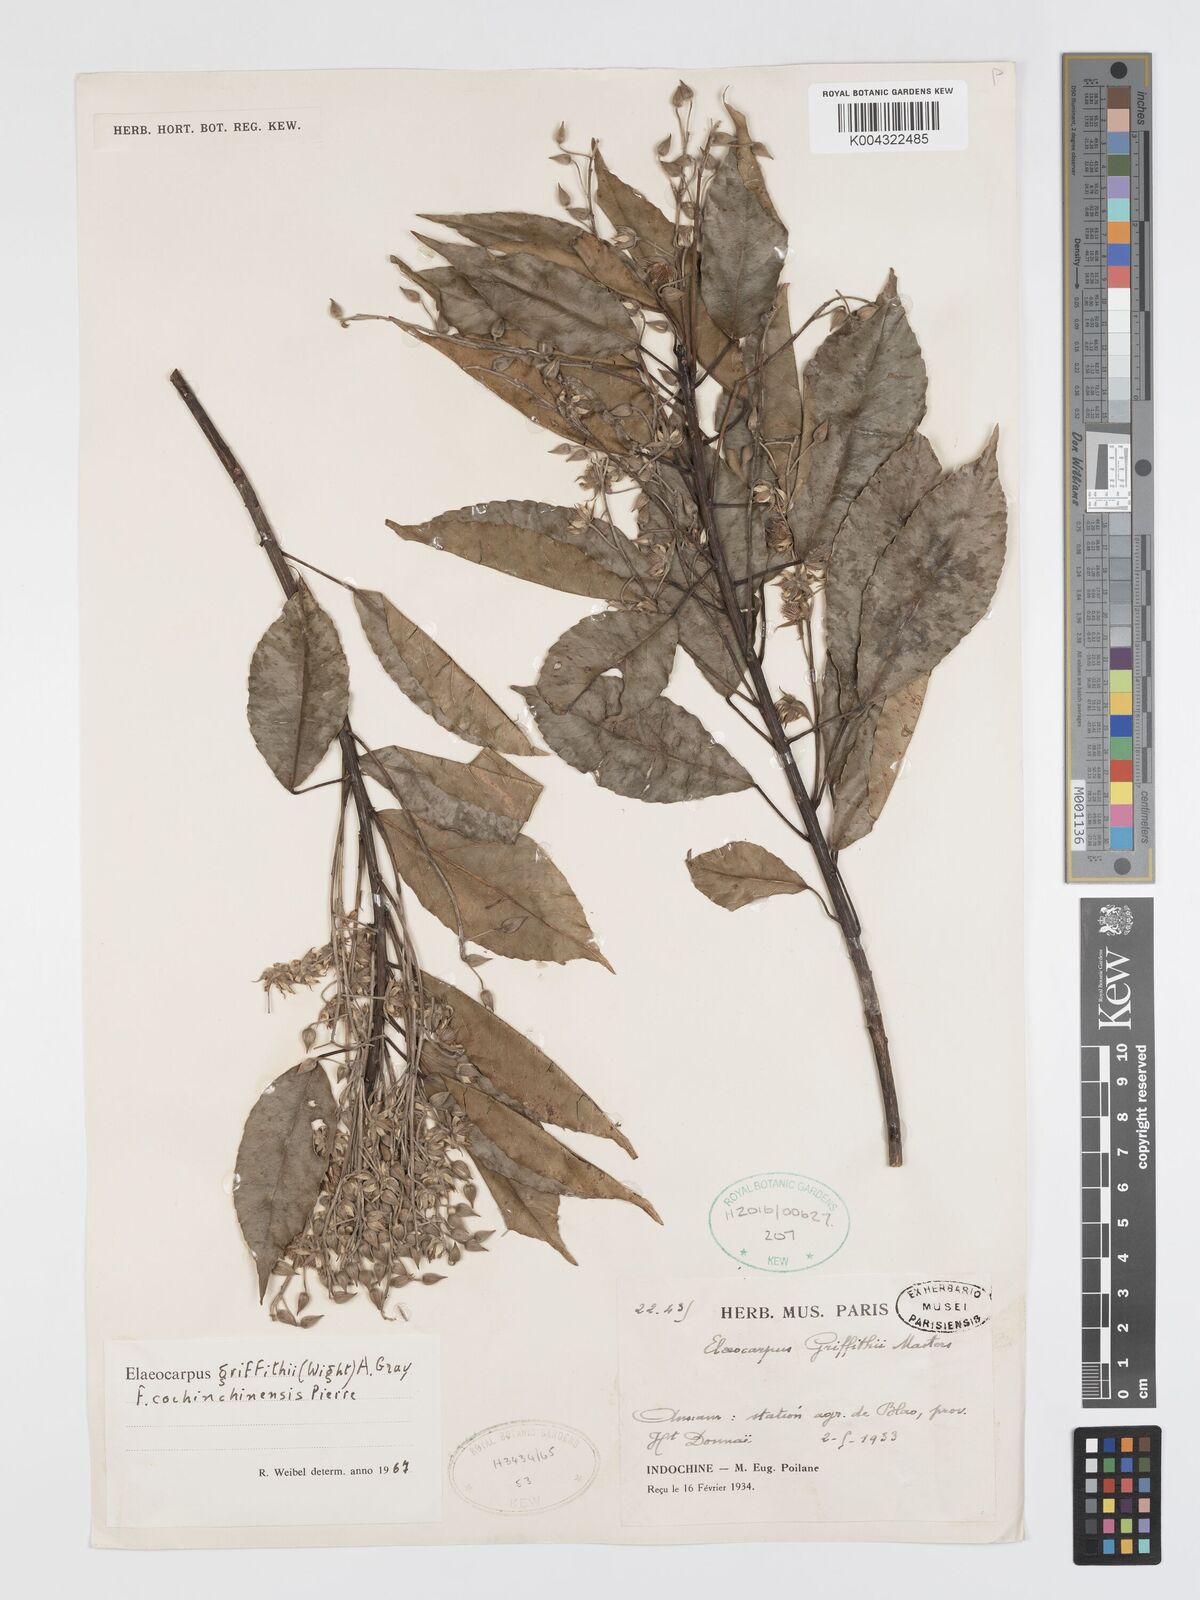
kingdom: Plantae
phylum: Tracheophyta
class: Magnoliopsida
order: Oxalidales
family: Elaeocarpaceae
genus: Elaeocarpus
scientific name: Elaeocarpus griffithii
